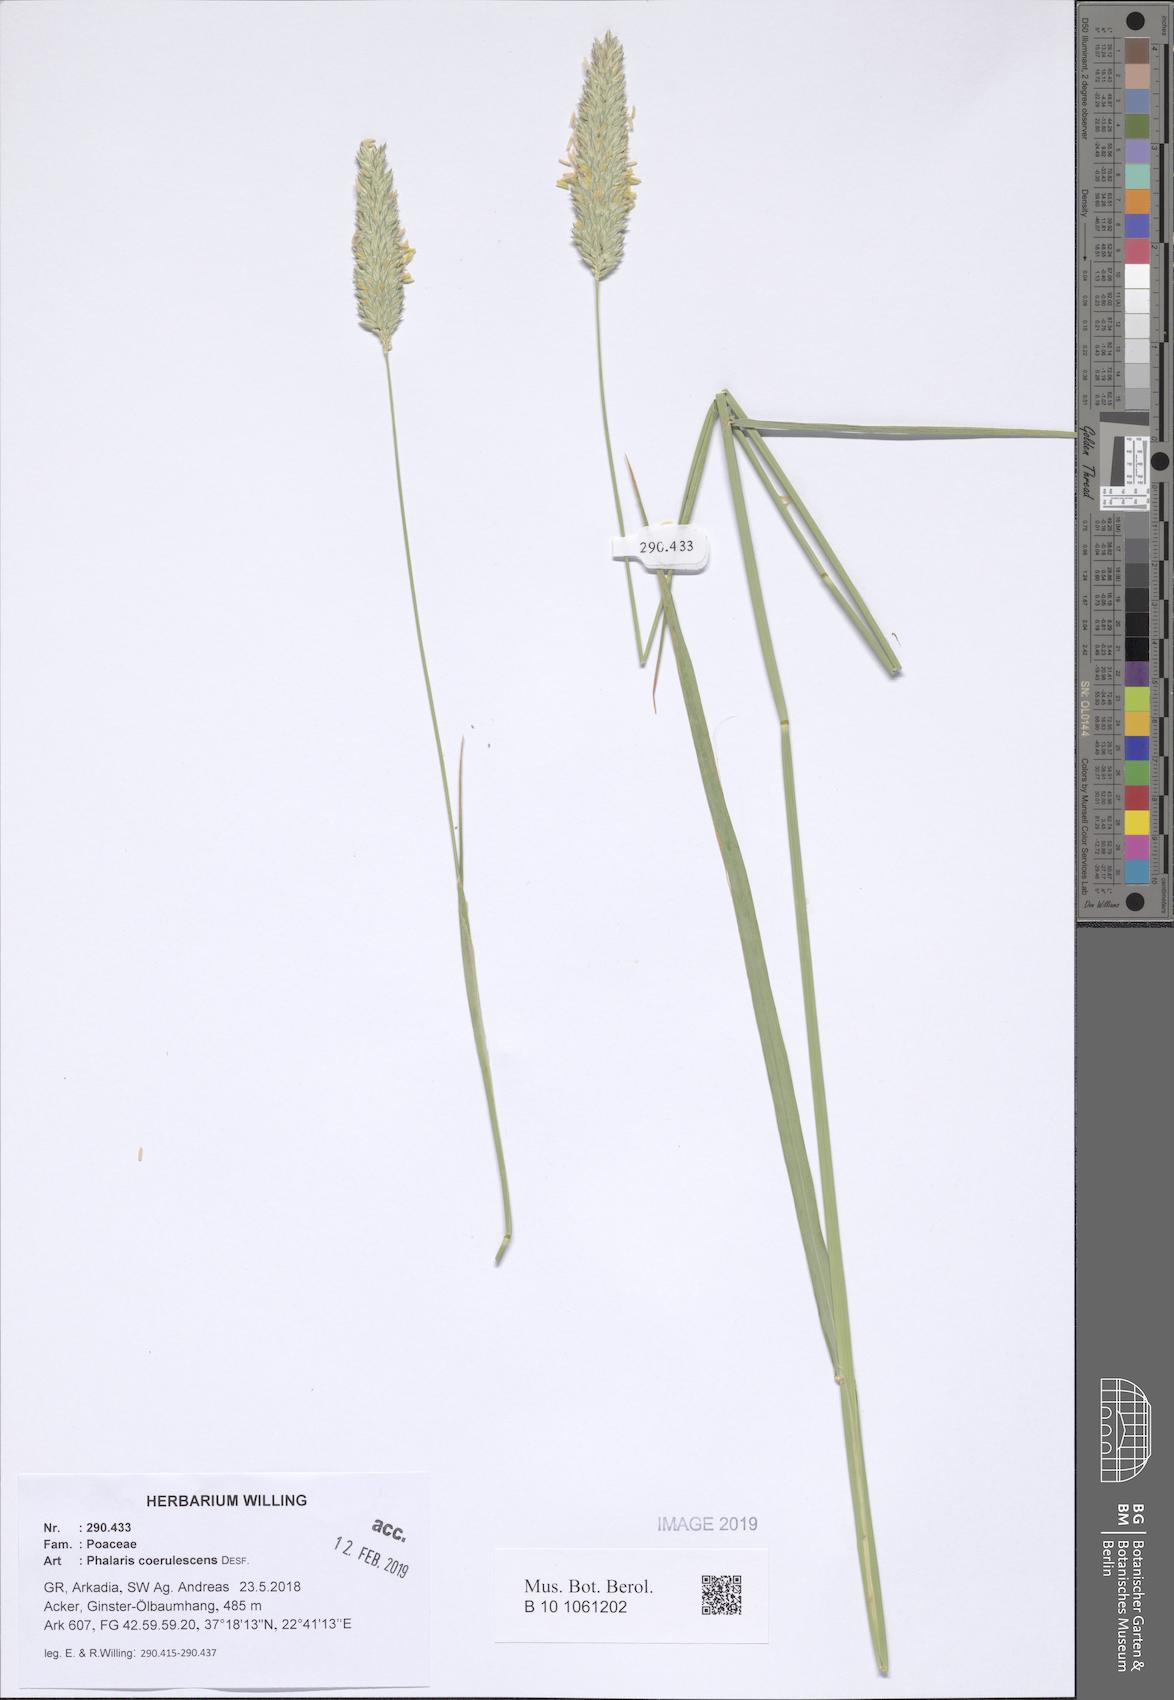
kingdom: Plantae
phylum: Tracheophyta
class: Liliopsida
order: Poales
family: Poaceae
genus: Phalaris
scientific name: Phalaris coerulescens
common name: Sunolgrass
